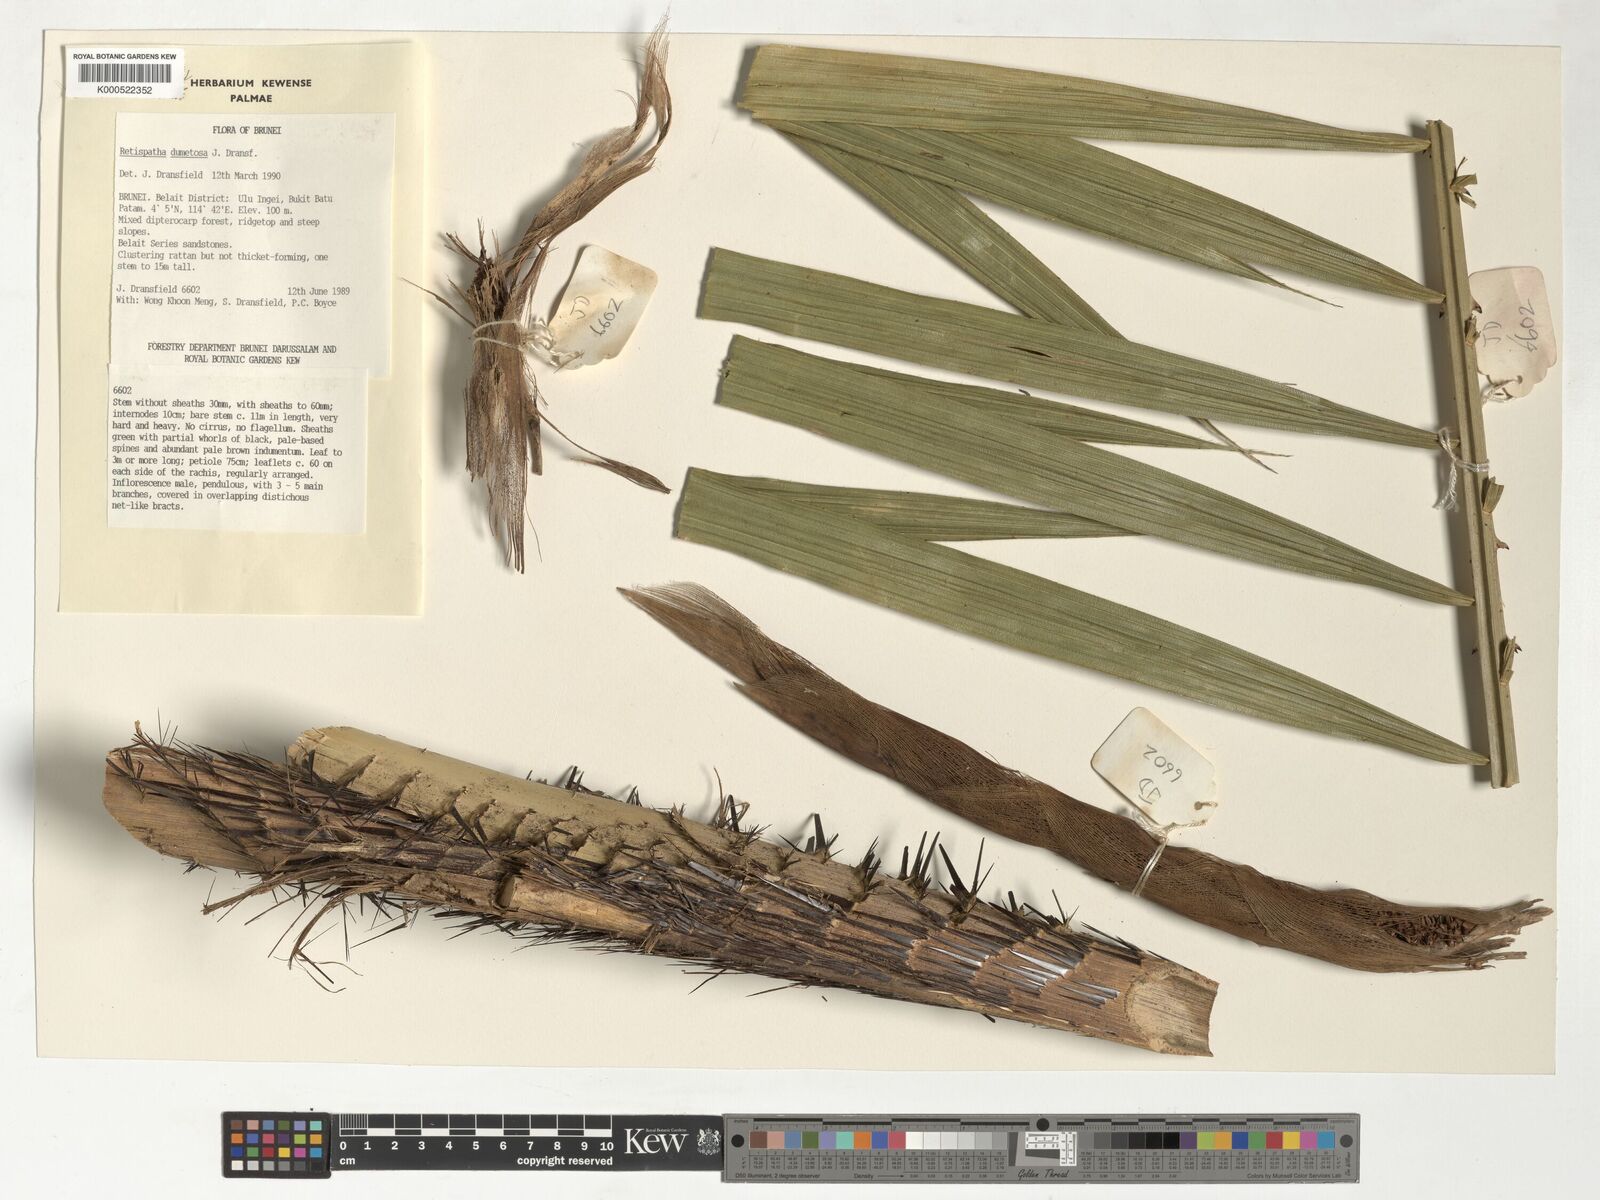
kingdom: Plantae
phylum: Tracheophyta
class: Liliopsida
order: Arecales
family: Arecaceae
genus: Calamus
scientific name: Calamus dumetosus
